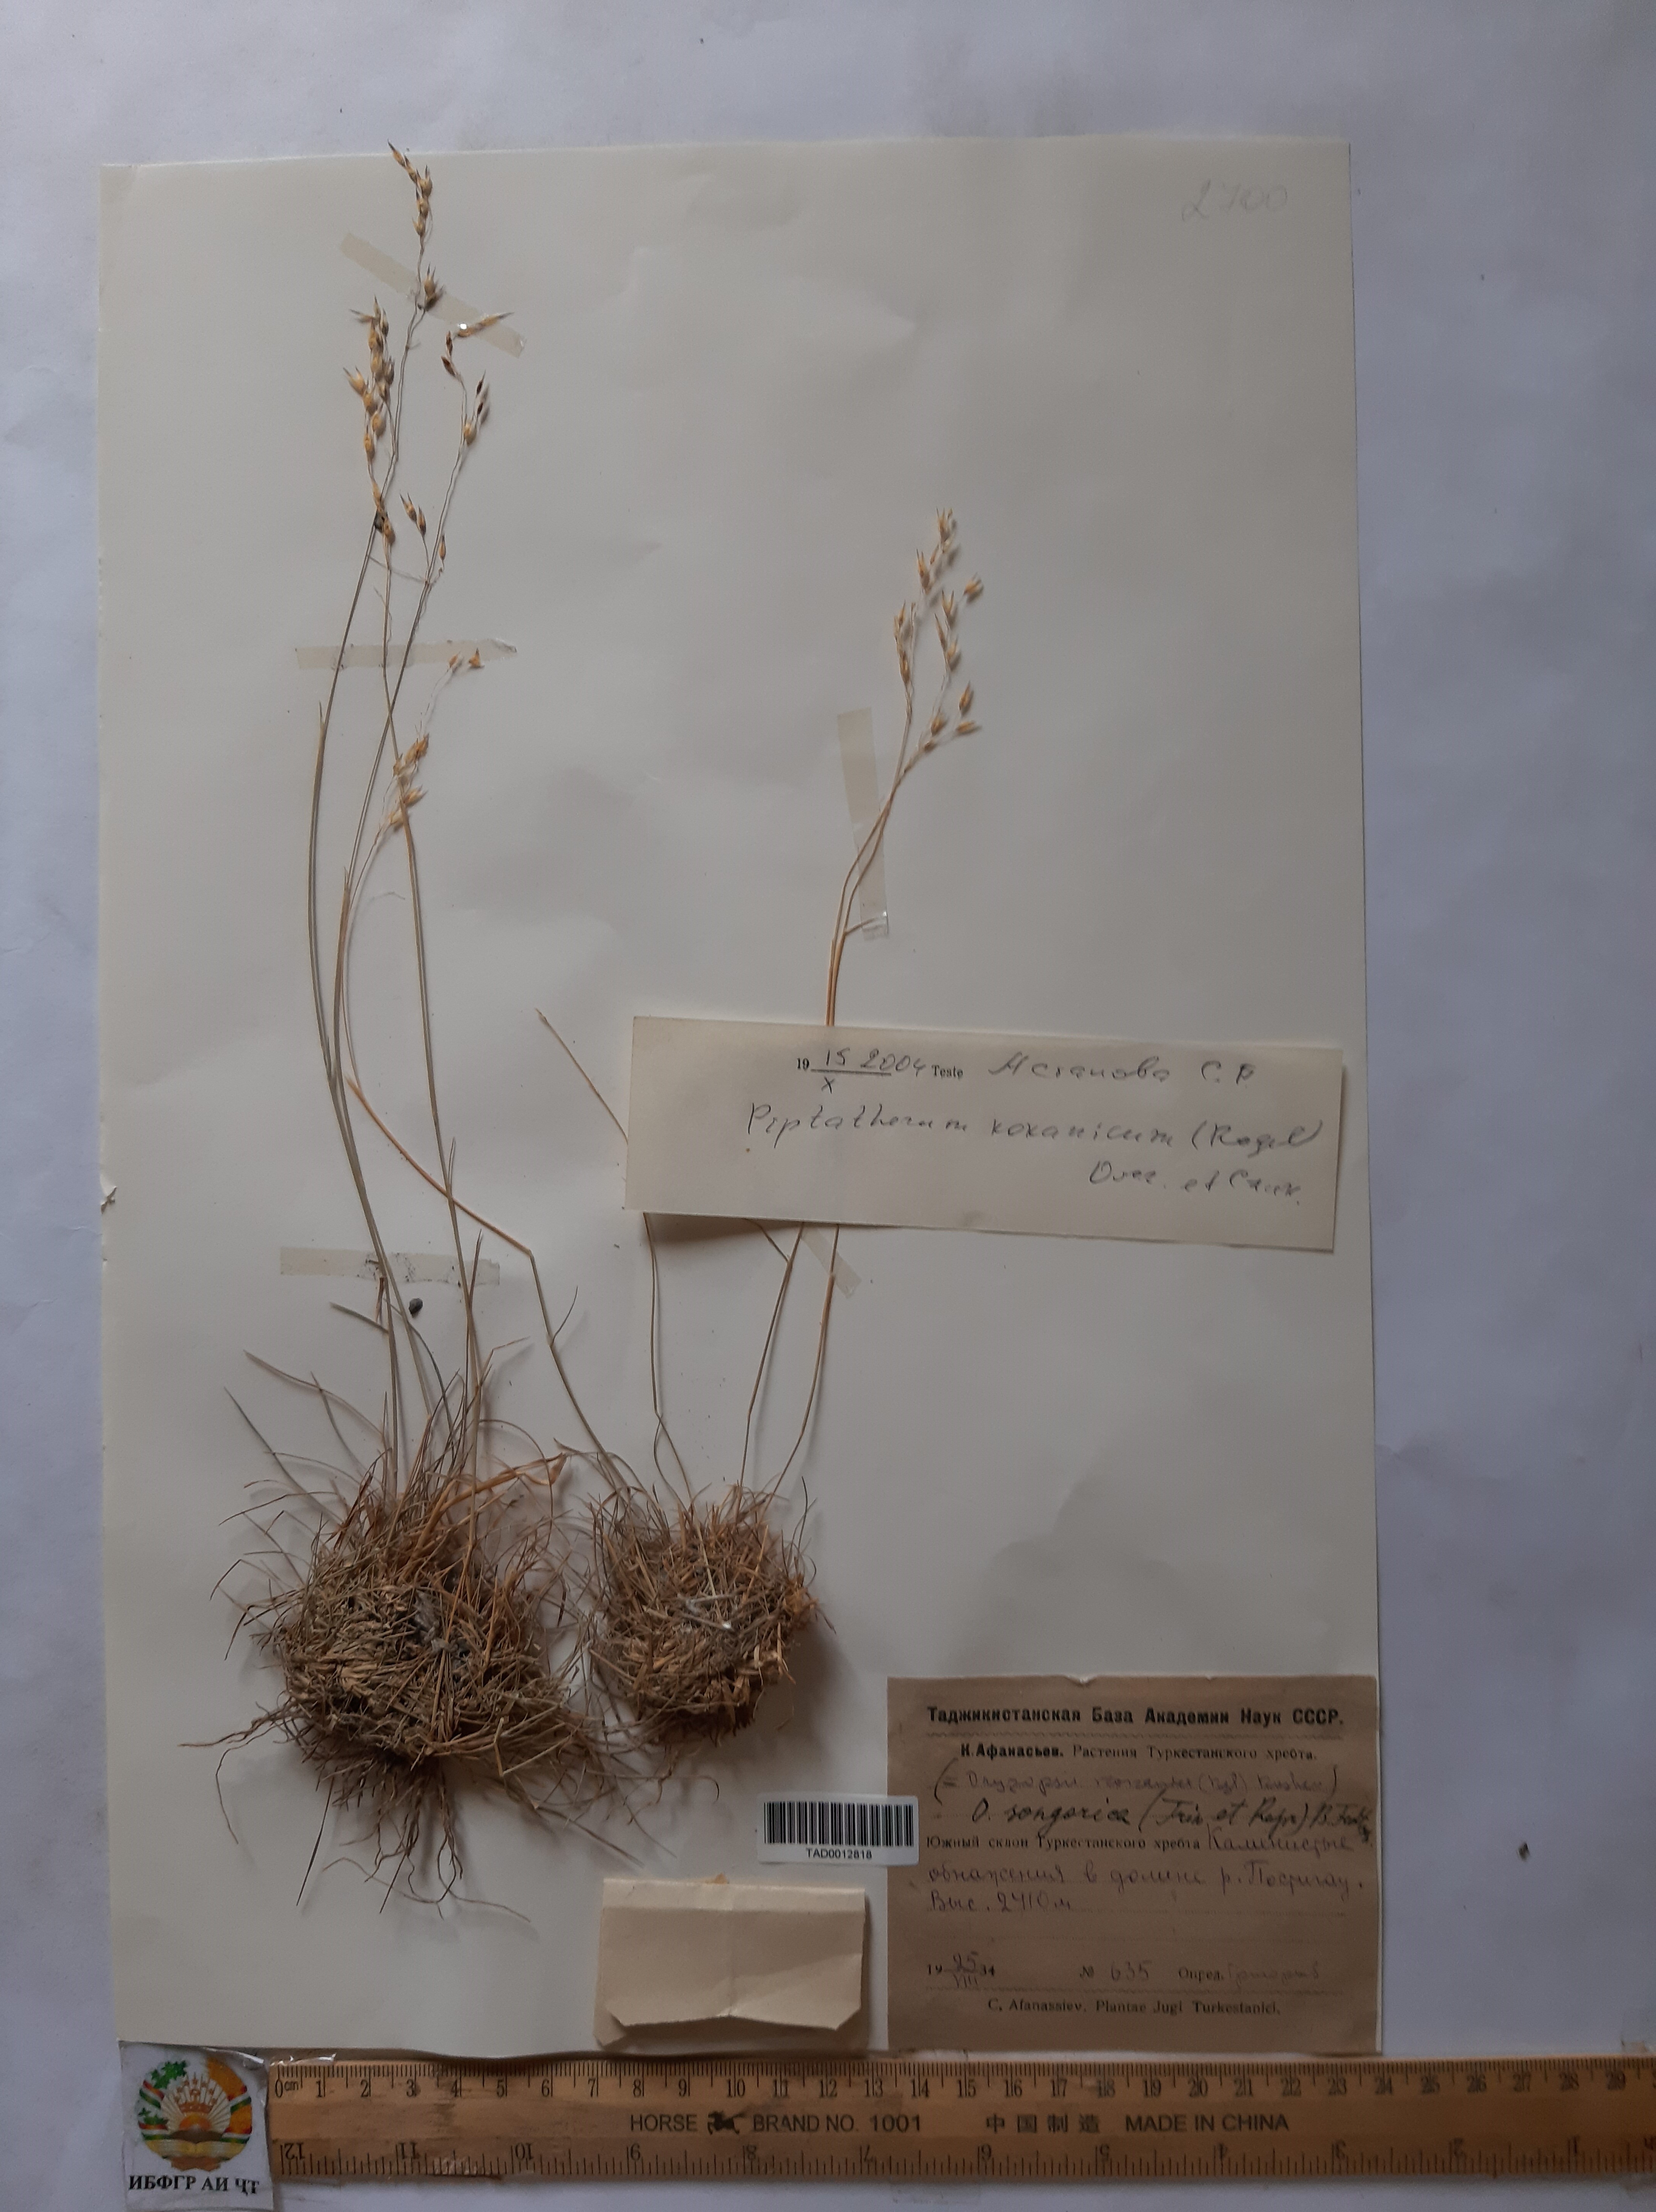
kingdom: Plantae
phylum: Tracheophyta
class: Liliopsida
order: Poales
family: Poaceae
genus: Piptatherum
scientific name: Piptatherum songaricum
